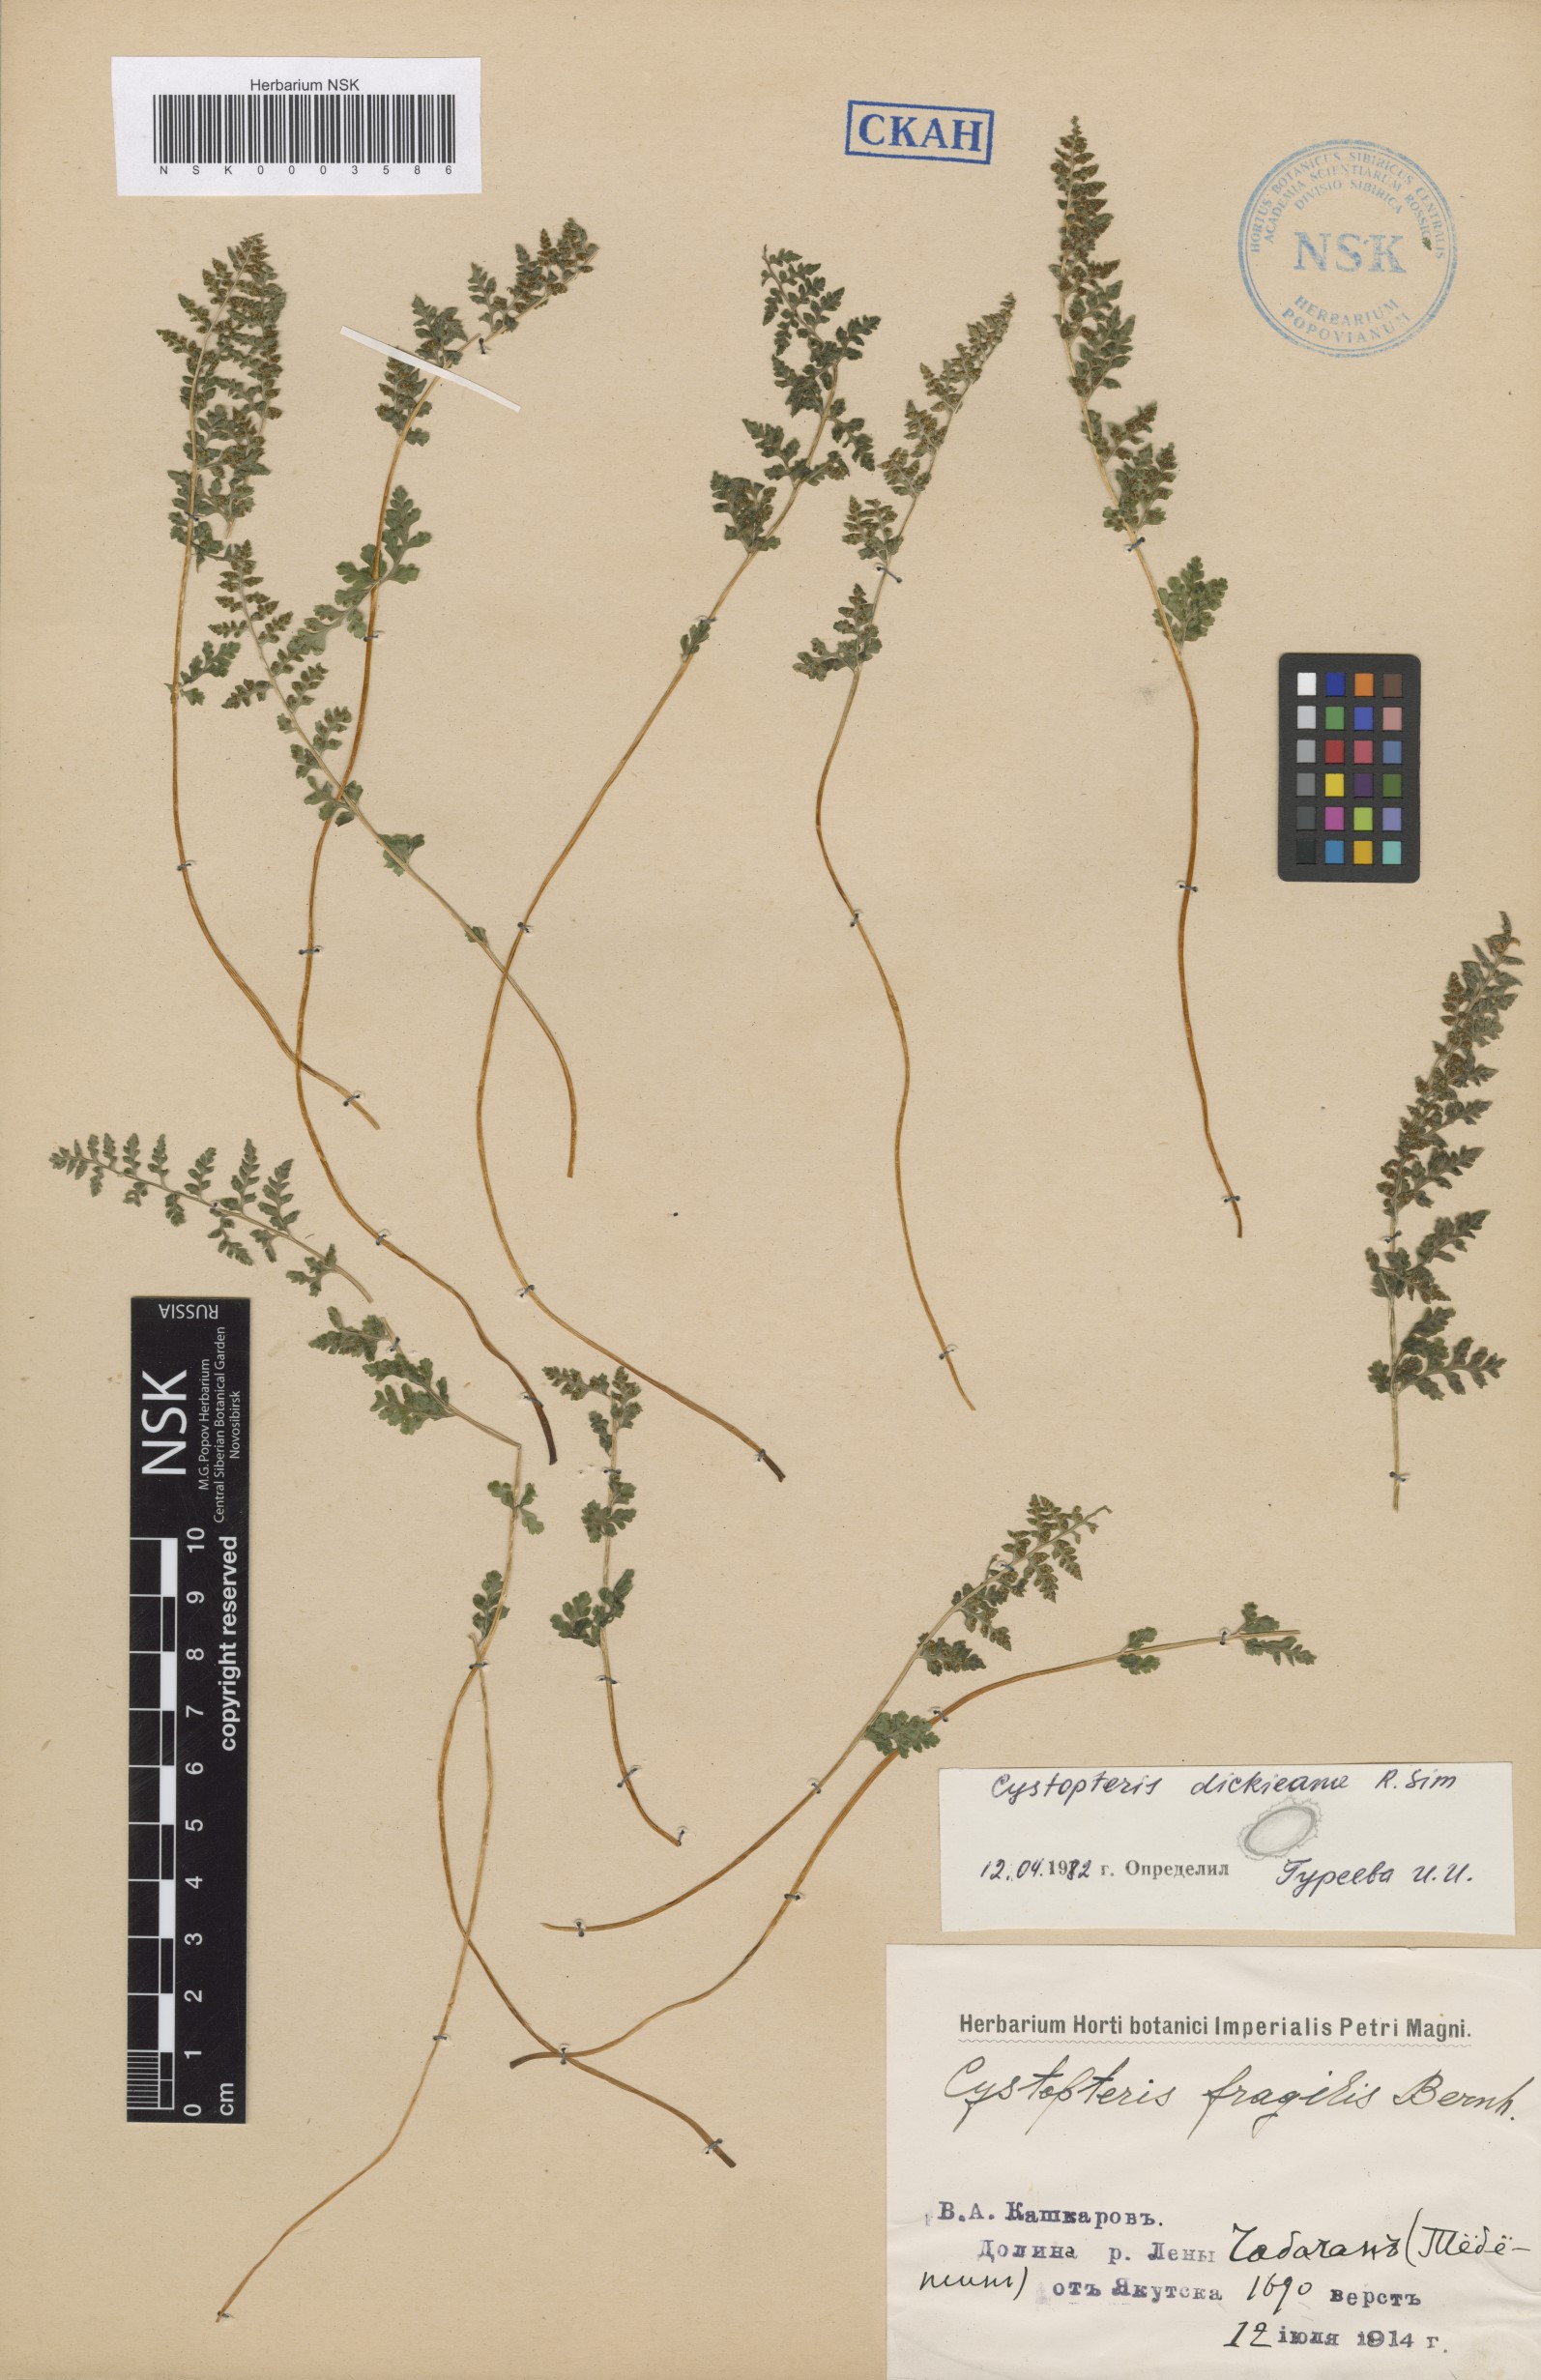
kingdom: Plantae
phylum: Tracheophyta
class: Polypodiopsida
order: Polypodiales
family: Cystopteridaceae
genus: Cystopteris
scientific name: Cystopteris dickieana
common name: Dickie's bladder-fern
